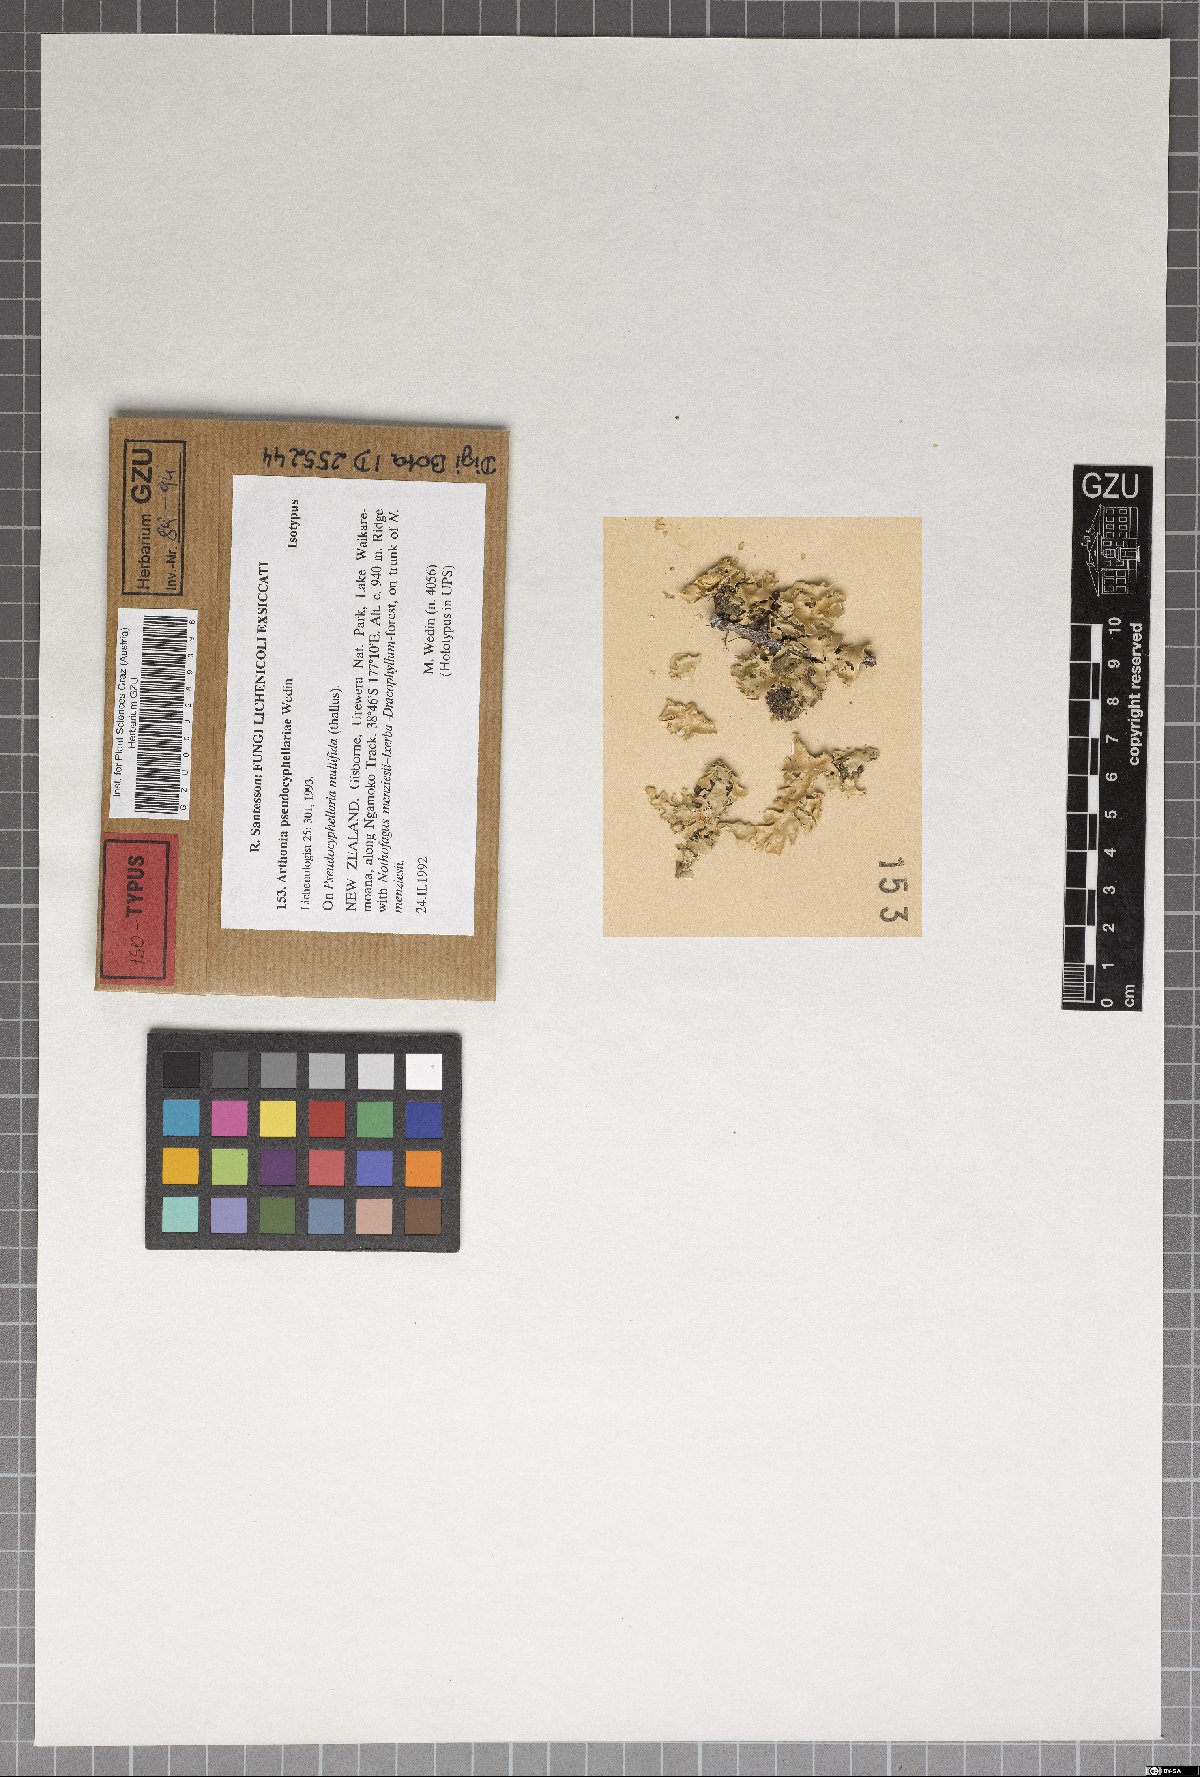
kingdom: Plantae
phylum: Marchantiophyta
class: Jungermanniopsida
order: Jungermanniales
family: Cephaloziaceae
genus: Odontoschisma
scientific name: Odontoschisma
